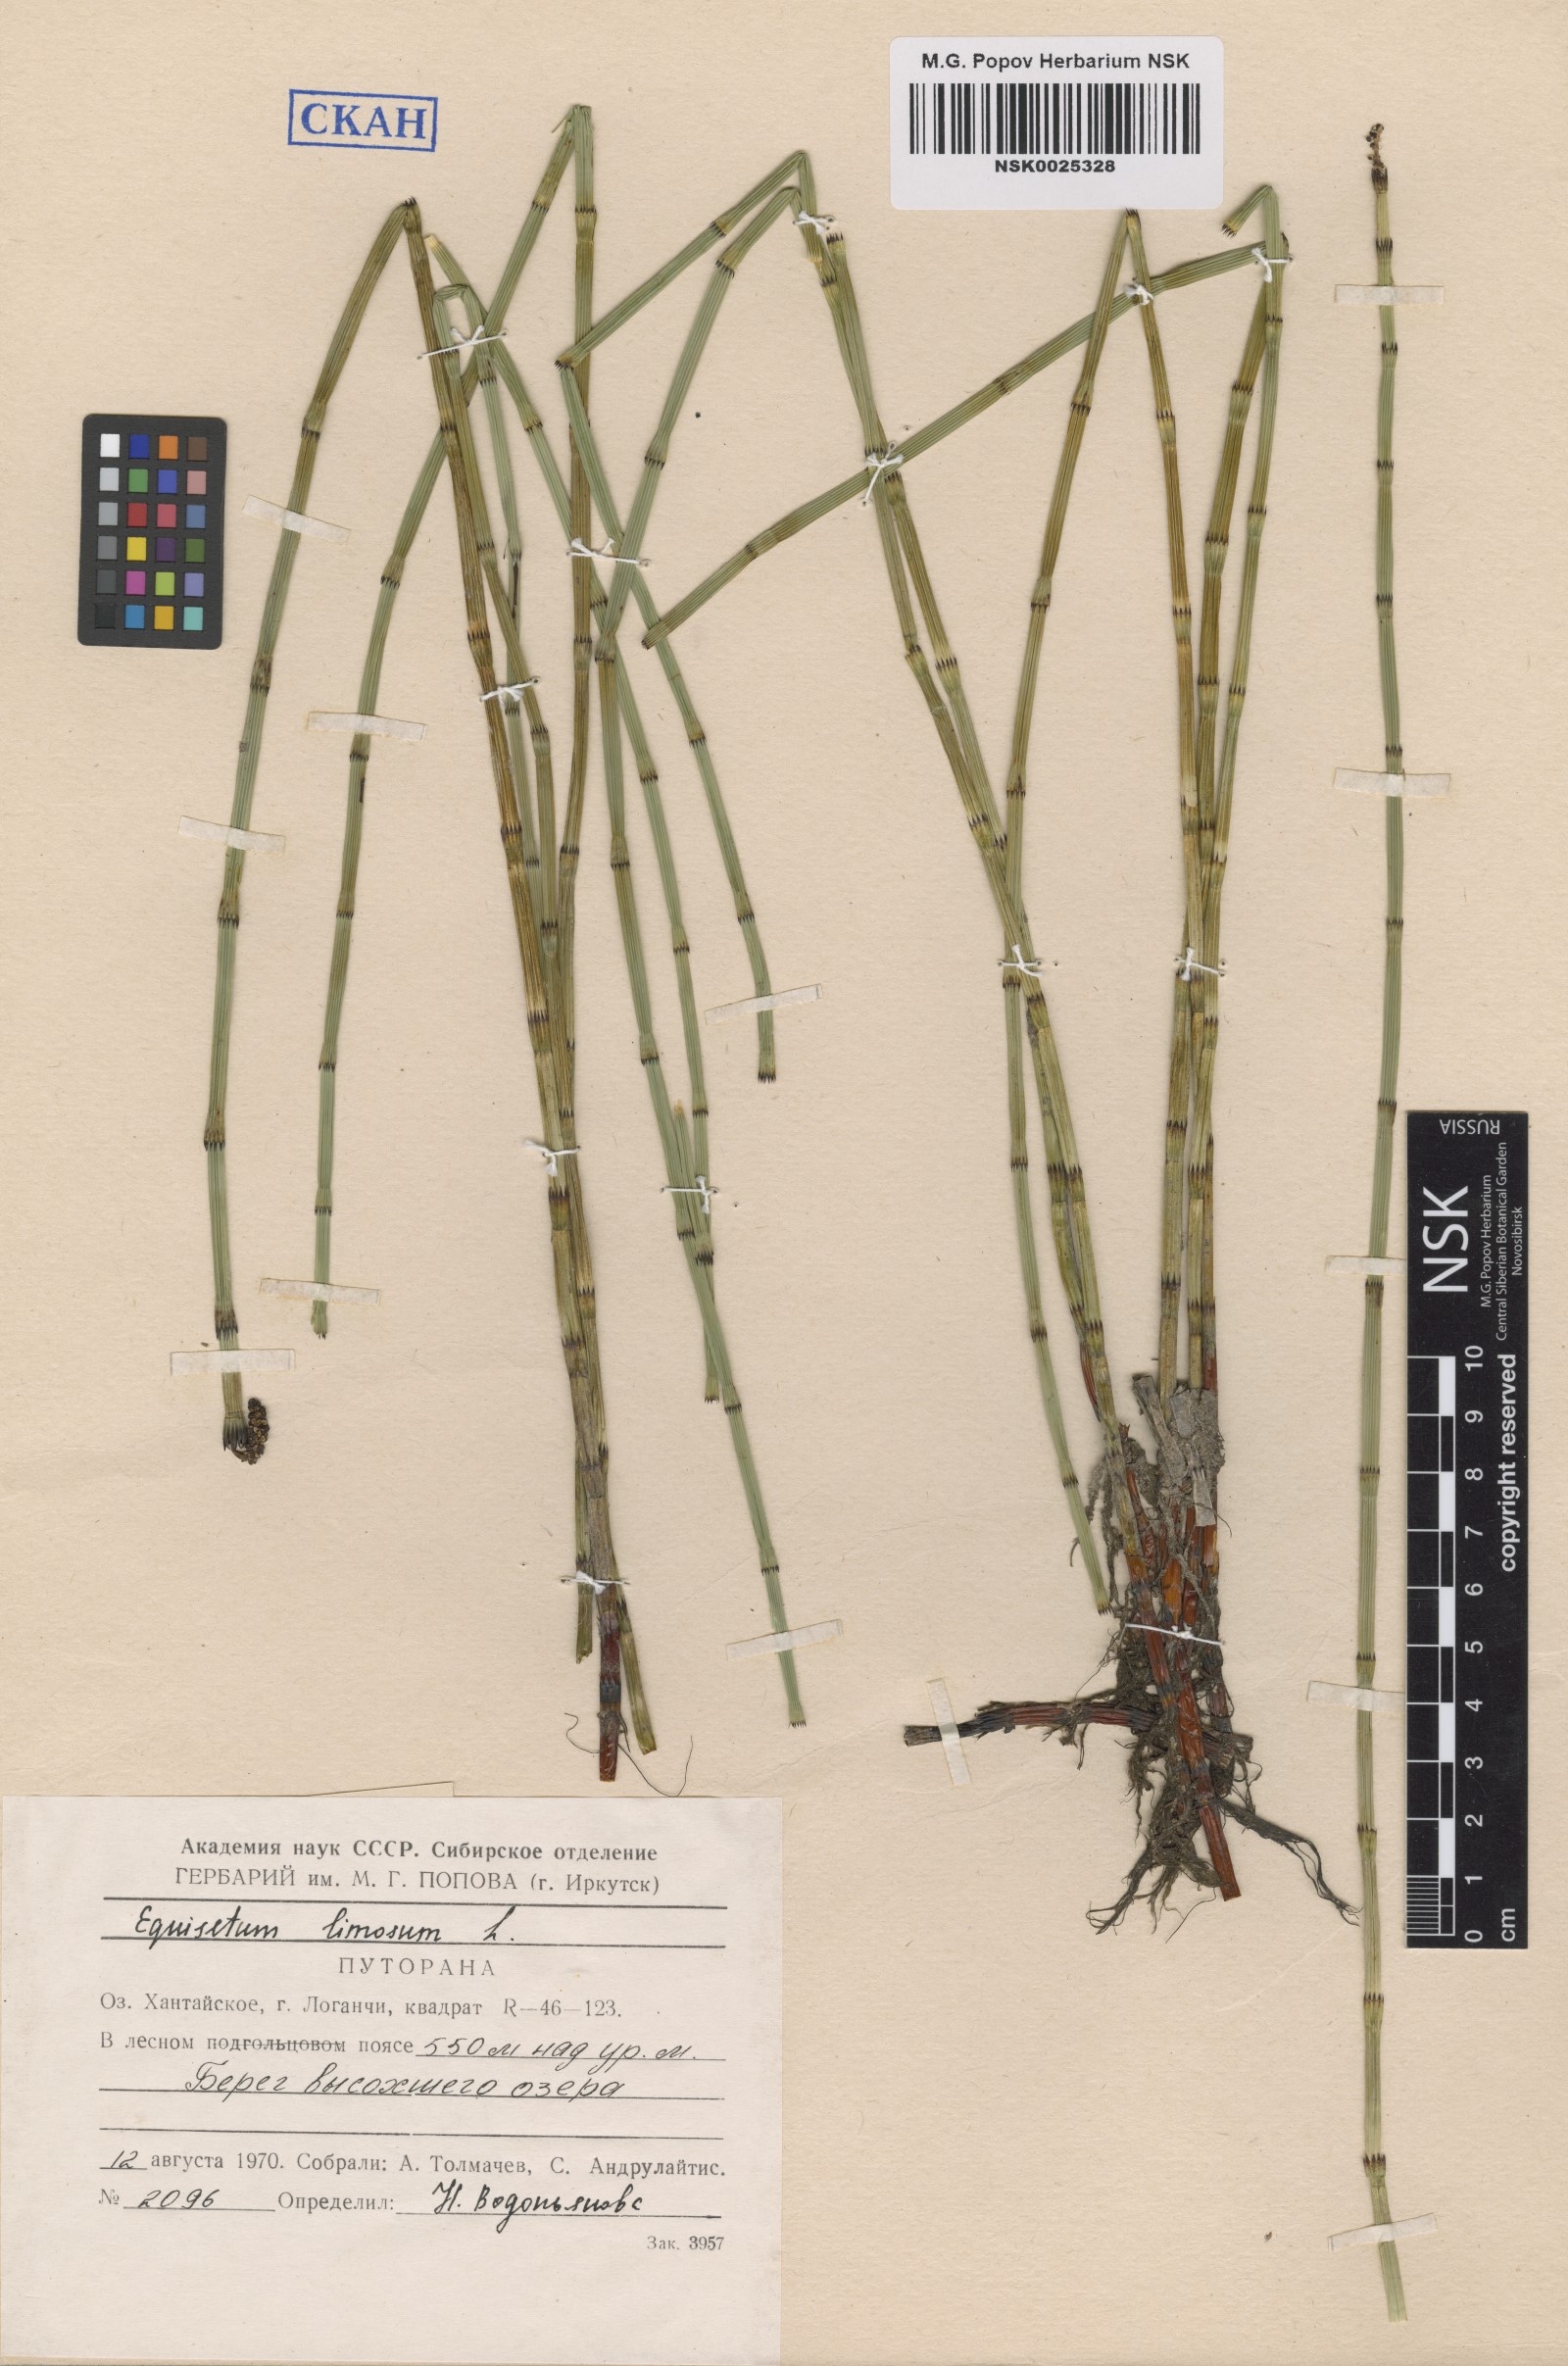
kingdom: Plantae
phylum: Tracheophyta
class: Polypodiopsida
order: Equisetales
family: Equisetaceae
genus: Equisetum
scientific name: Equisetum fluviatile
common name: Water horsetail
